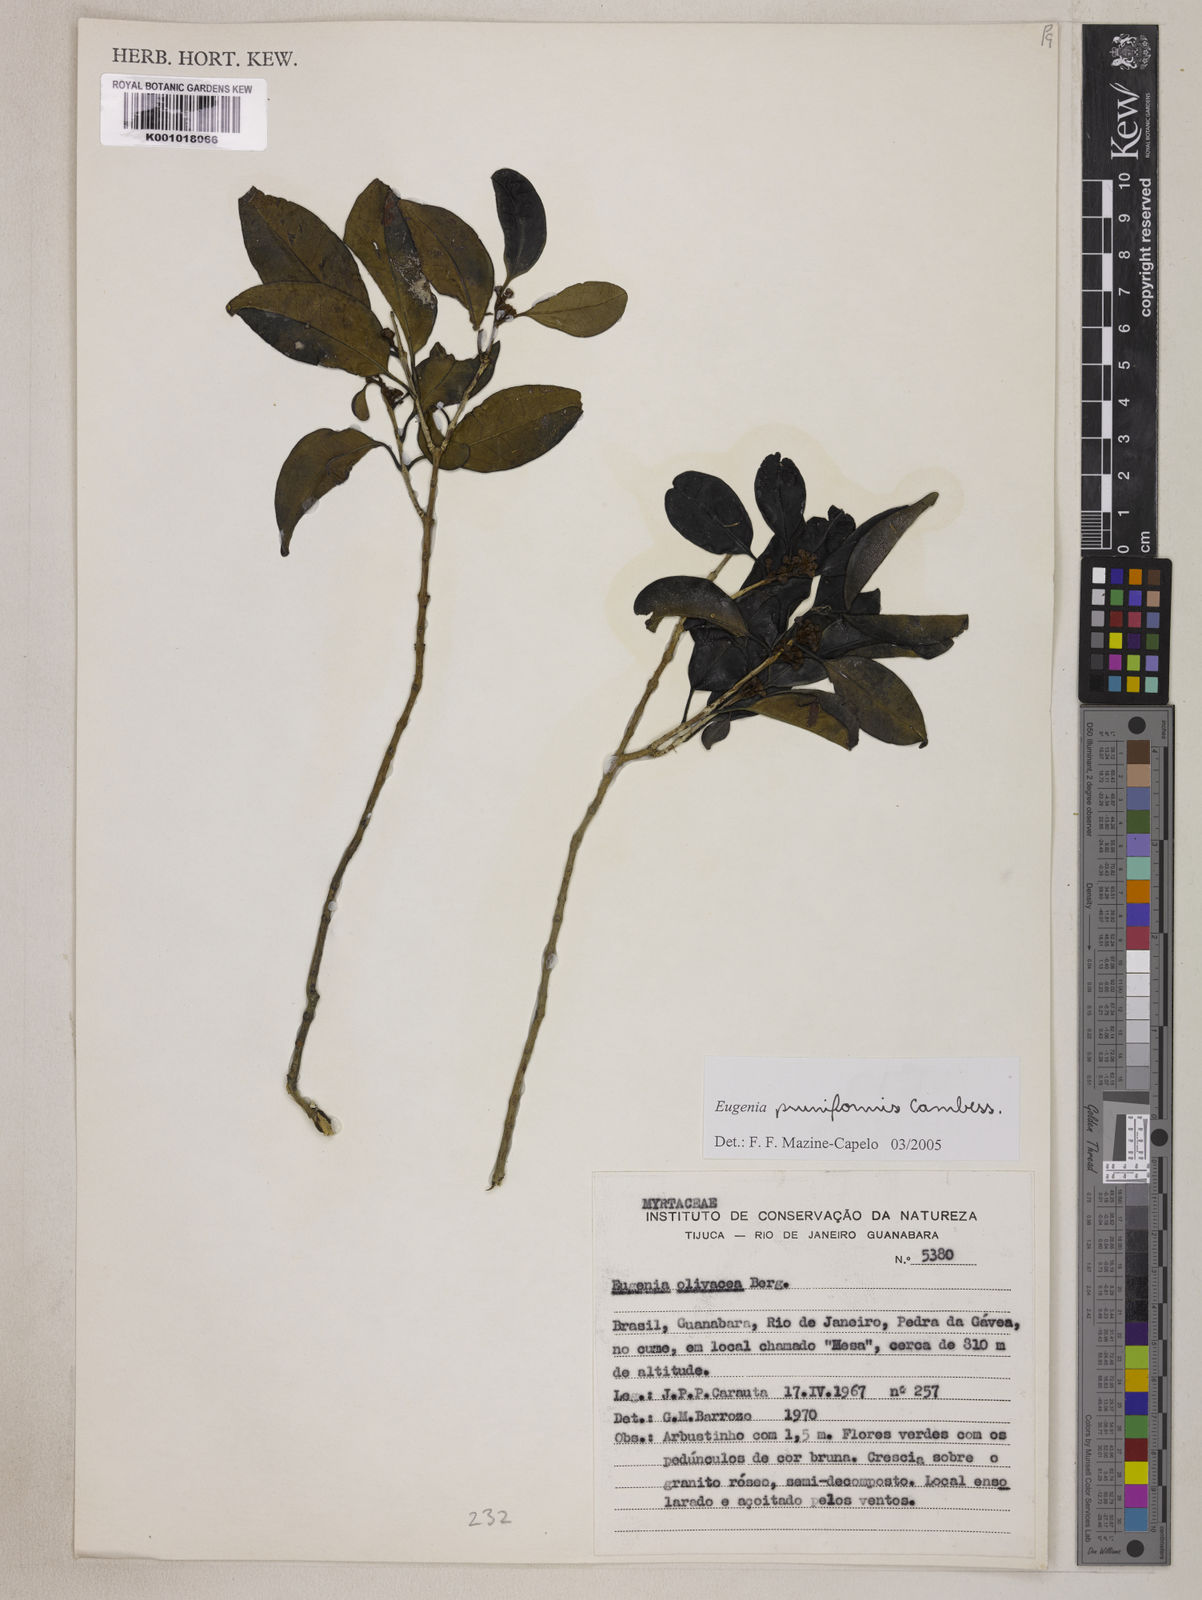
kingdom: Plantae
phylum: Tracheophyta
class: Magnoliopsida
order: Myrtales
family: Myrtaceae
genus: Eugenia
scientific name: Eugenia pruniformis
